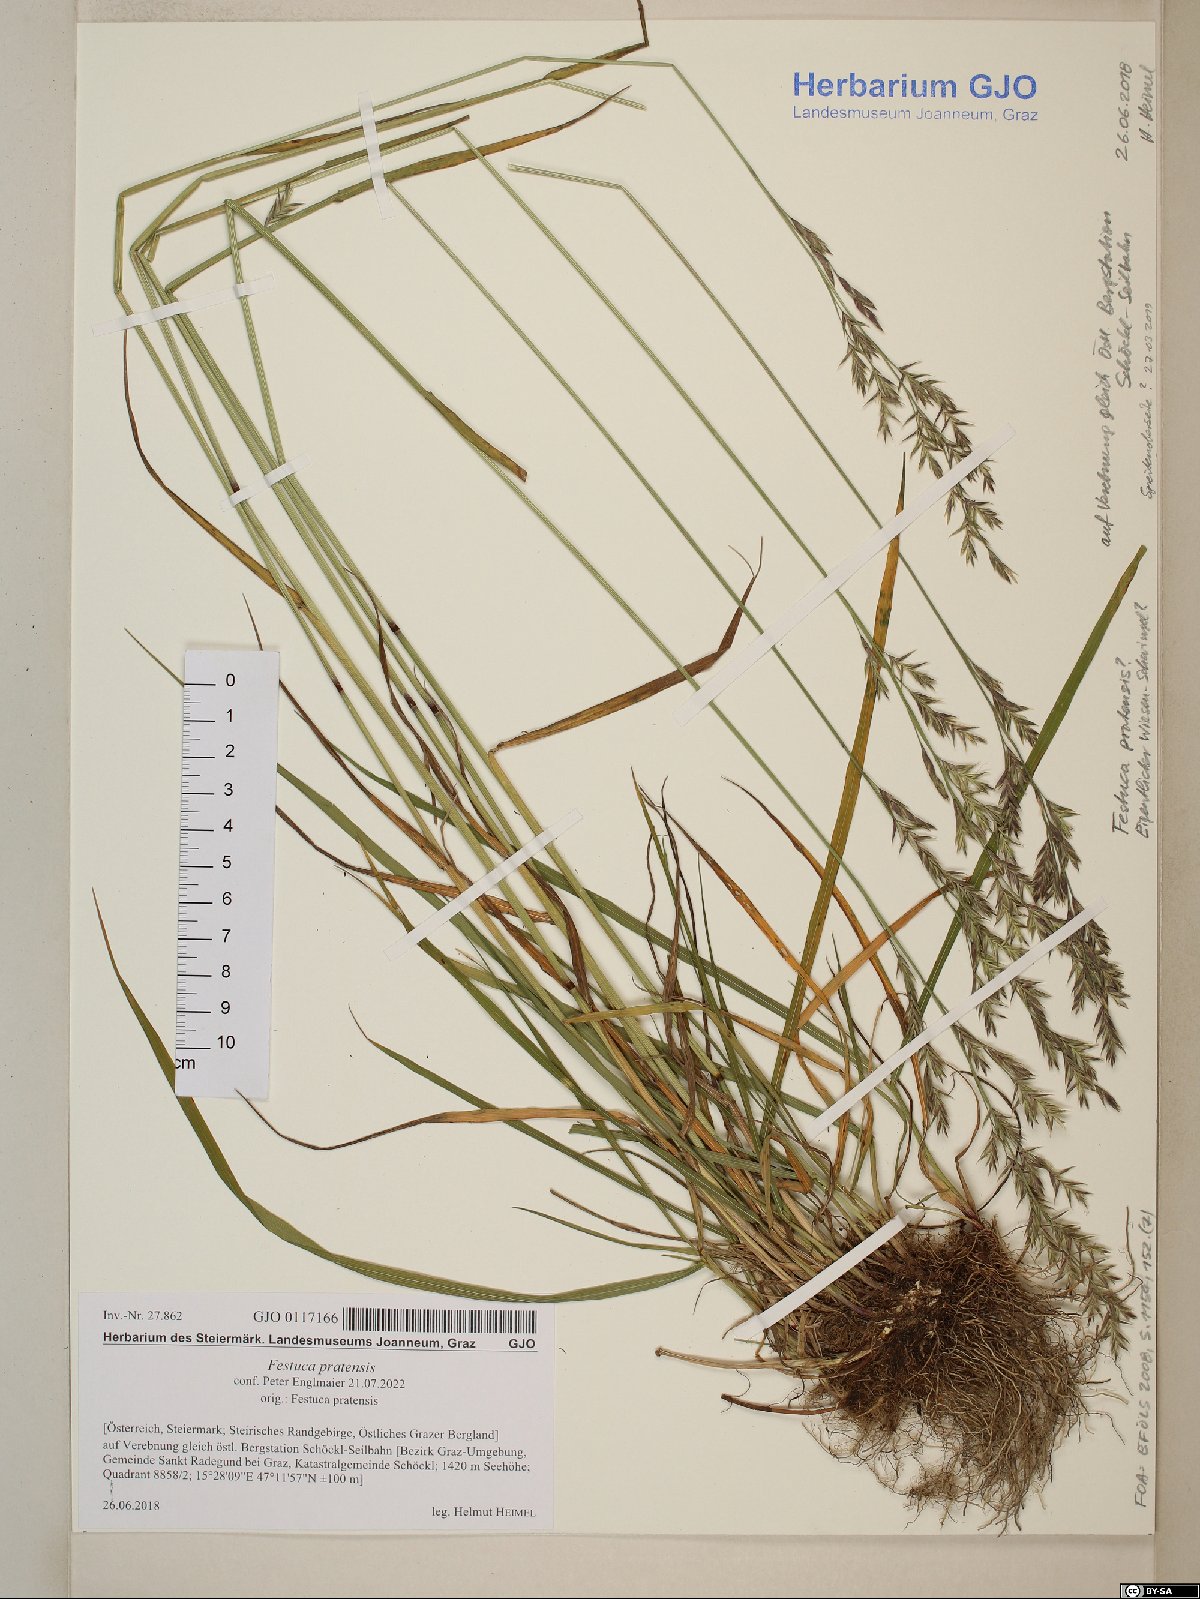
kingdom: Plantae
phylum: Tracheophyta
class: Liliopsida
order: Poales
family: Poaceae
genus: Lolium
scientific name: Lolium pratense
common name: Dover grass
